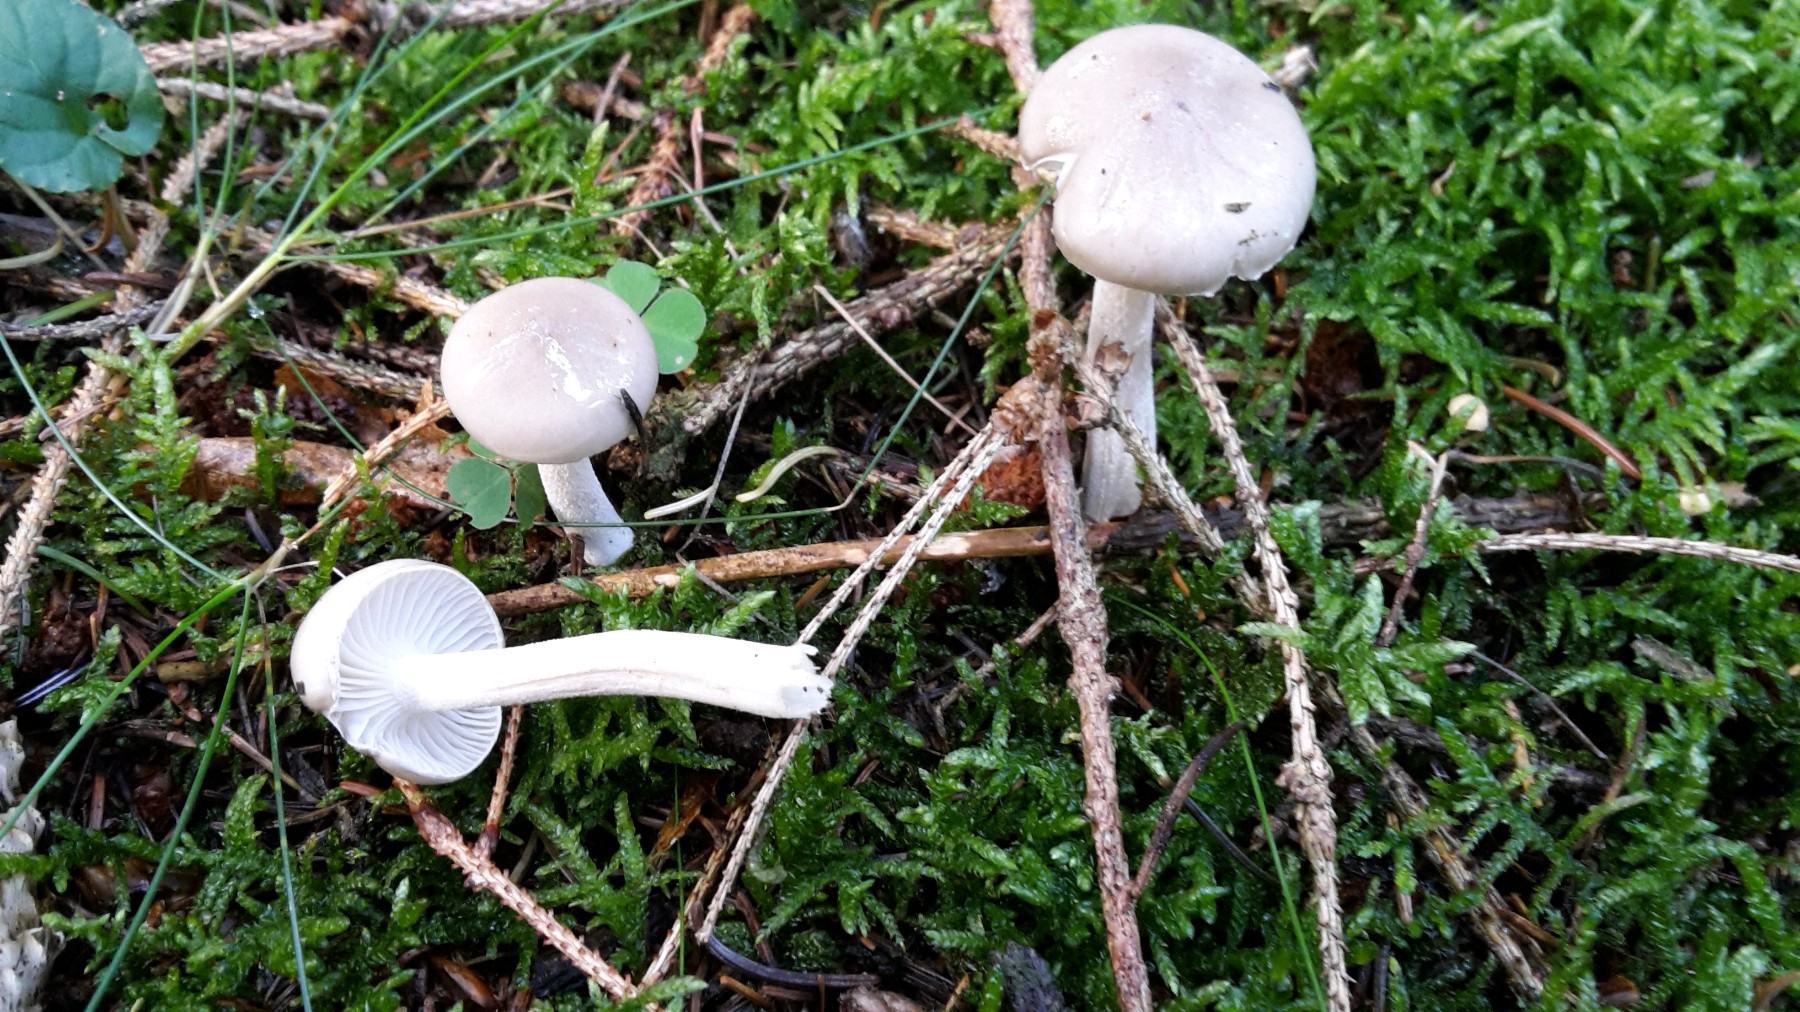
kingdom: Fungi
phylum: Basidiomycota
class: Agaricomycetes
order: Agaricales
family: Hygrophoraceae
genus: Hygrophorus
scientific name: Hygrophorus agathosmus
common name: vellugtende sneglehat
